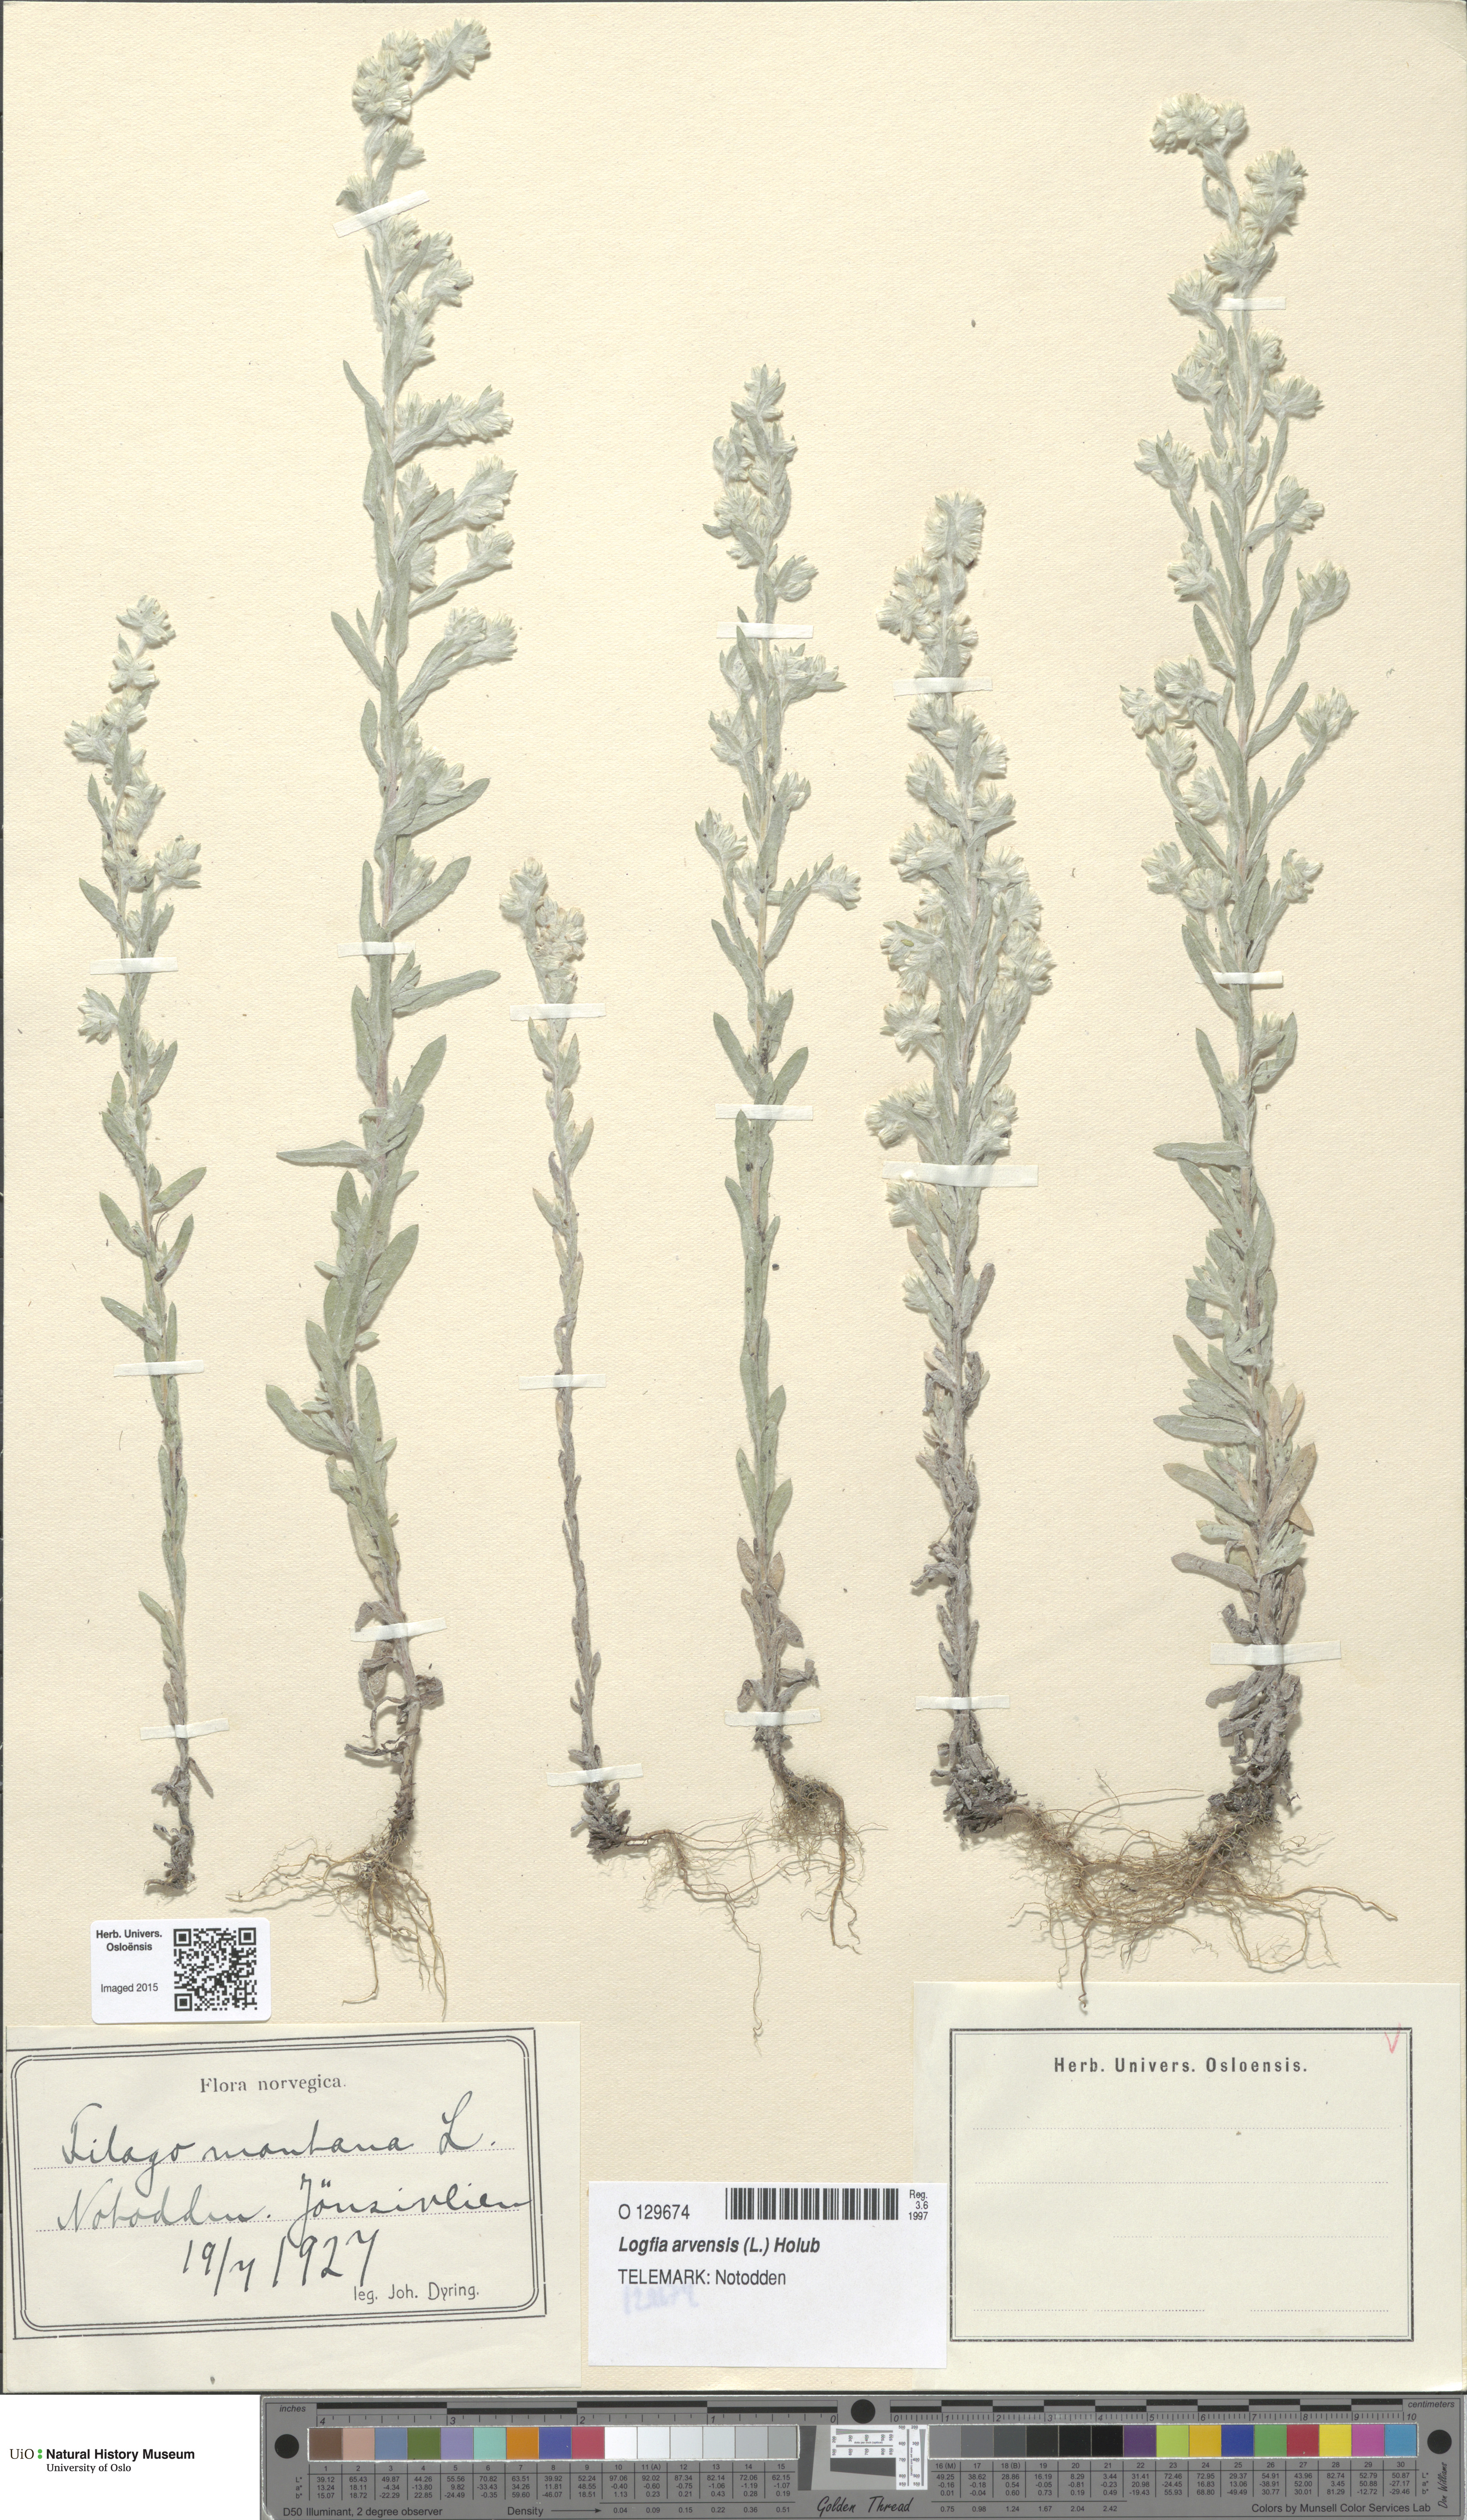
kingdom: Plantae
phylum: Tracheophyta
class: Magnoliopsida
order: Asterales
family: Asteraceae
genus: Filago
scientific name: Filago arvensis
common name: Field cudweed
